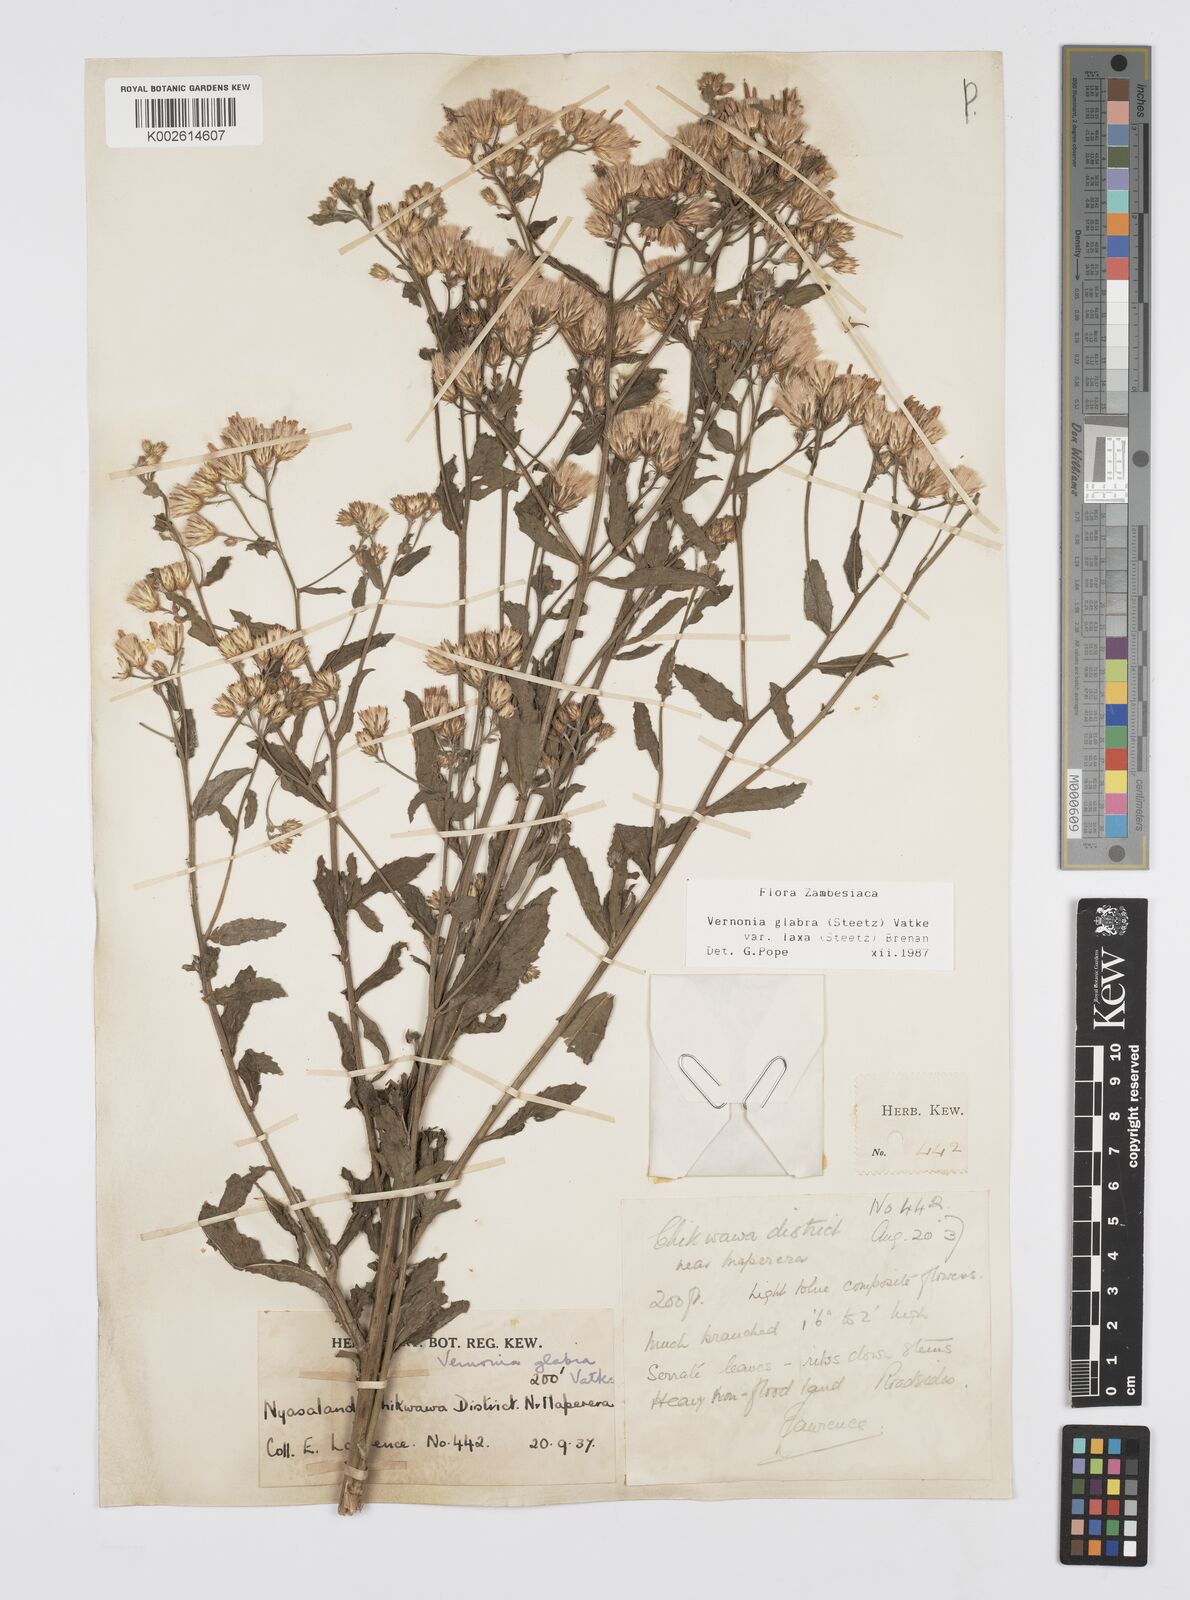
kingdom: Plantae
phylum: Tracheophyta
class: Magnoliopsida
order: Asterales
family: Asteraceae
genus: Linzia
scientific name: Linzia glabra
